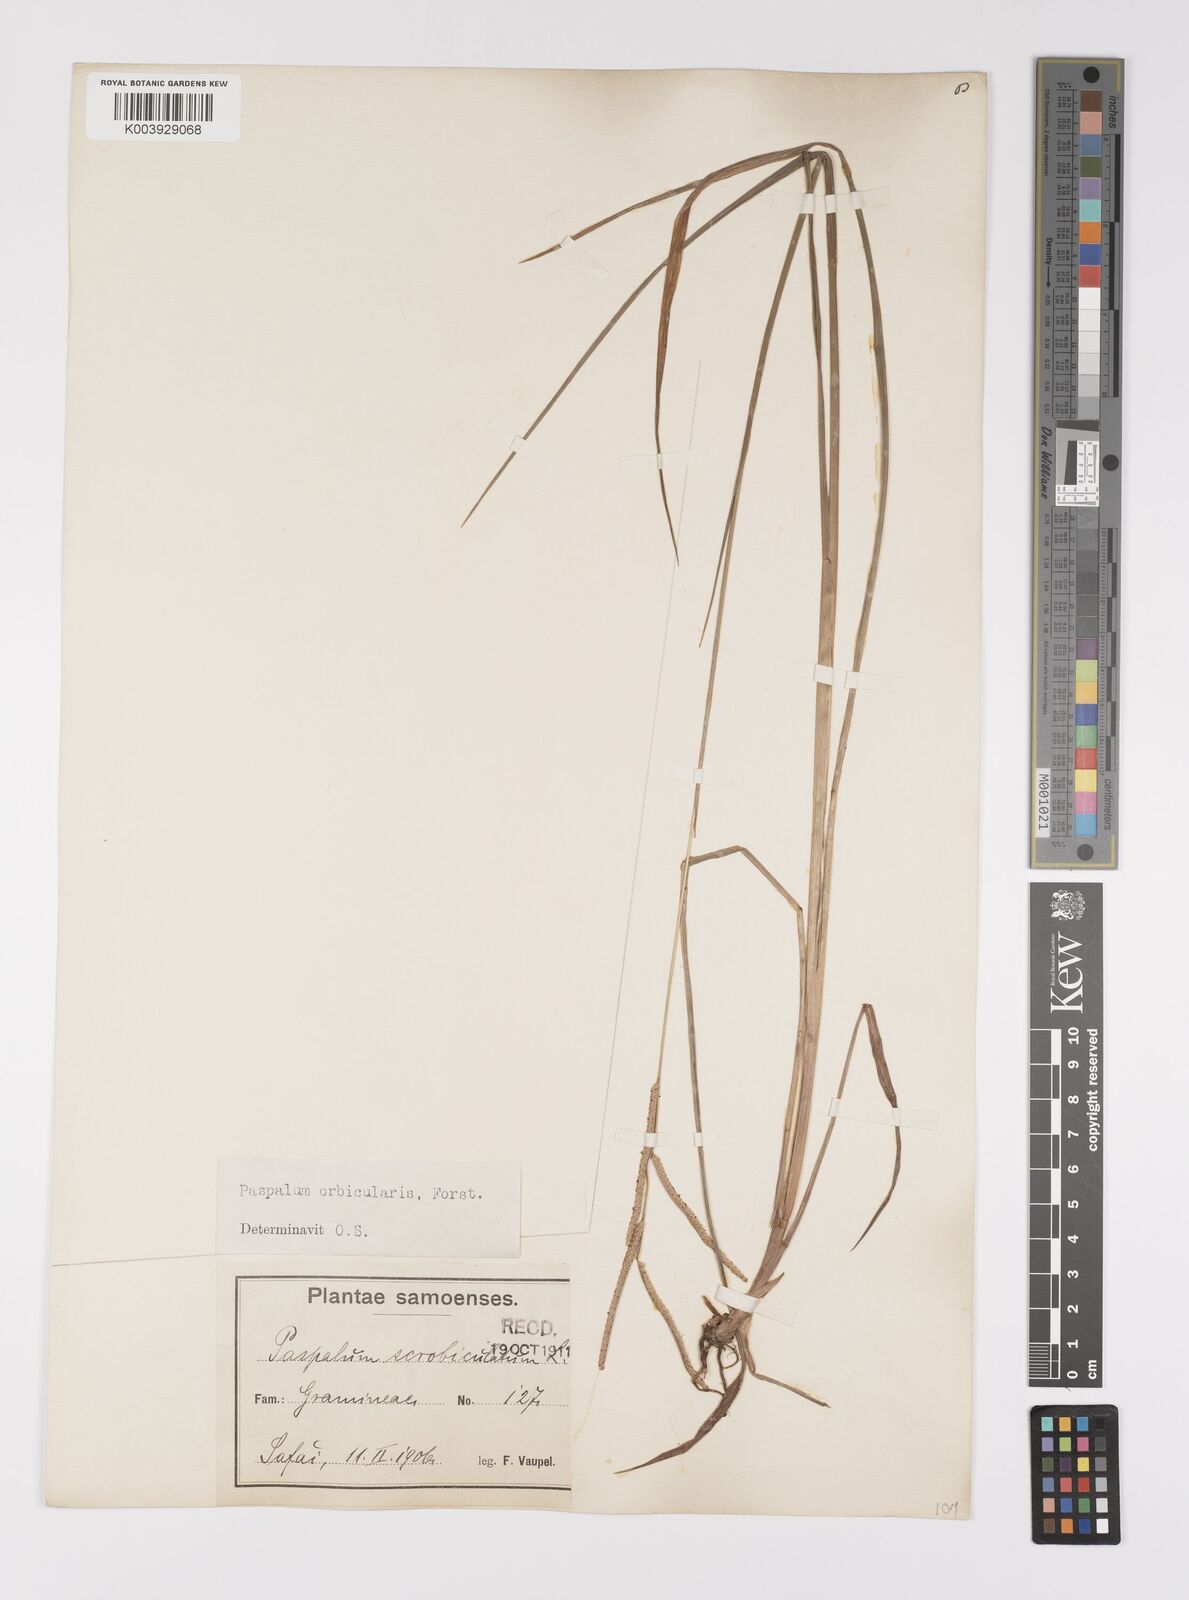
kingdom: Plantae
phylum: Tracheophyta
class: Liliopsida
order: Poales
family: Poaceae
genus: Paspalum
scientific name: Paspalum scrobiculatum
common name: Kodo millet
